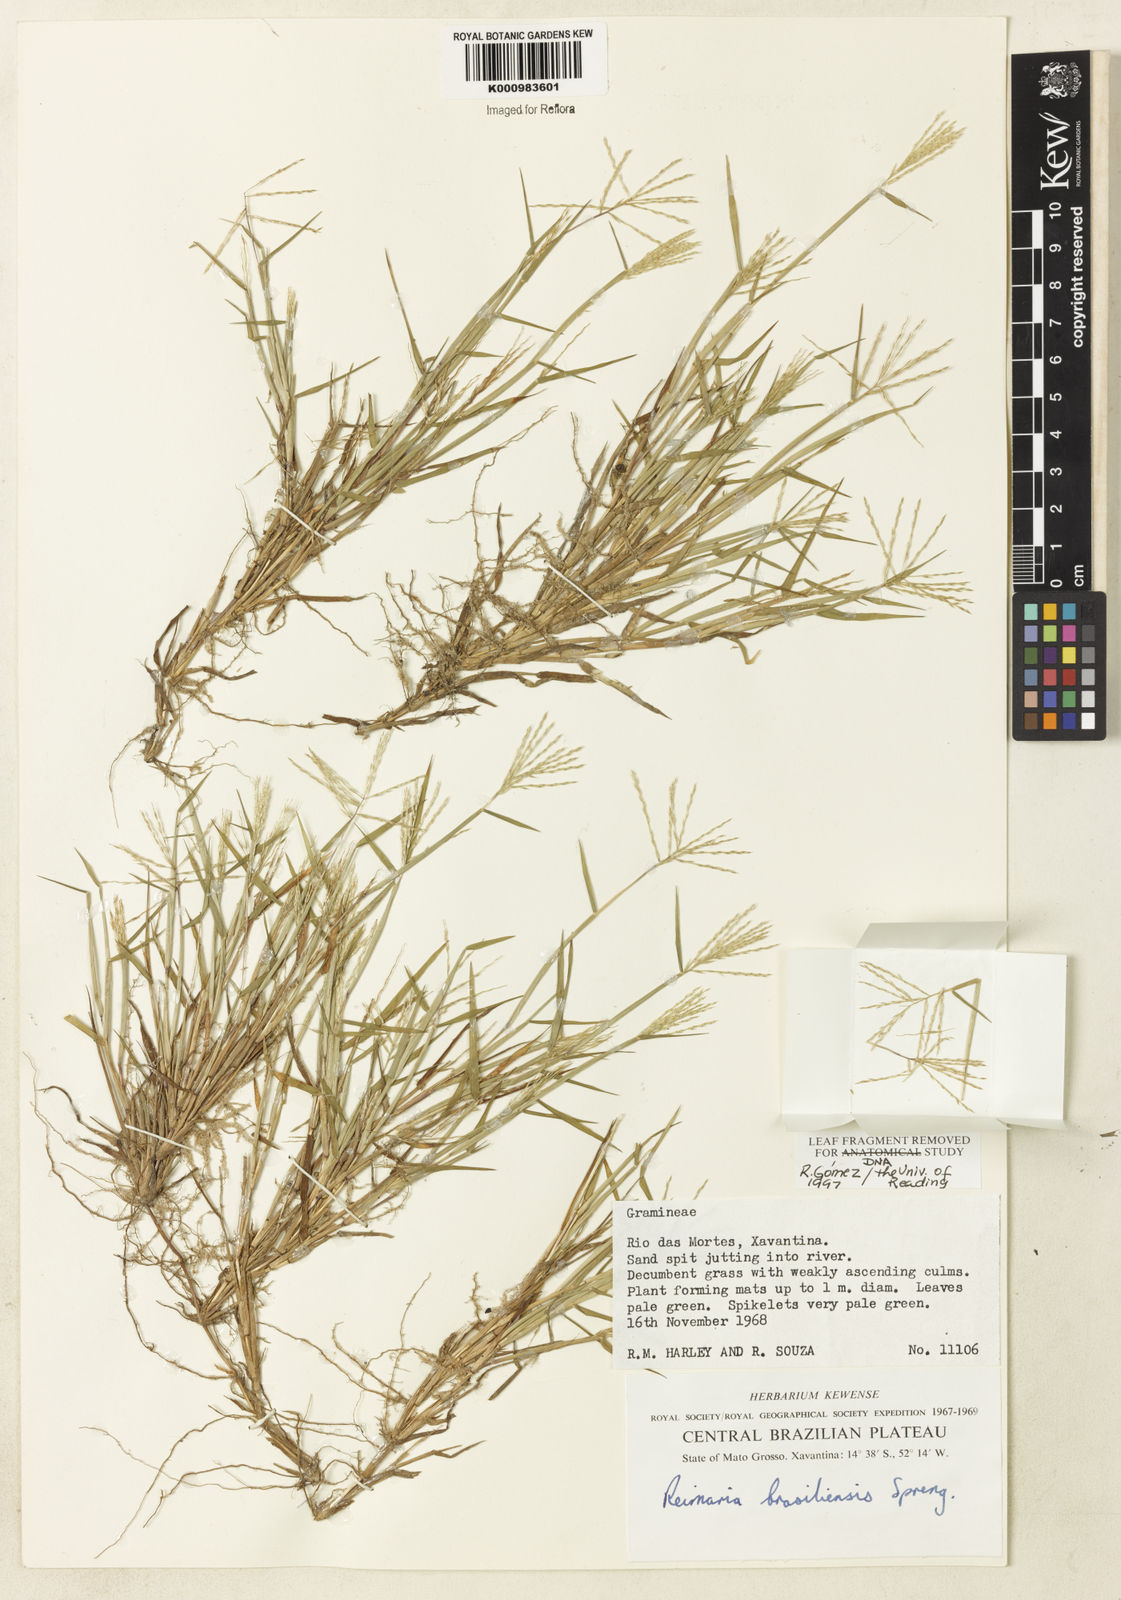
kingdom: Plantae
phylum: Tracheophyta
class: Liliopsida
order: Poales
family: Poaceae
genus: Paspalum
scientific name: Paspalum
